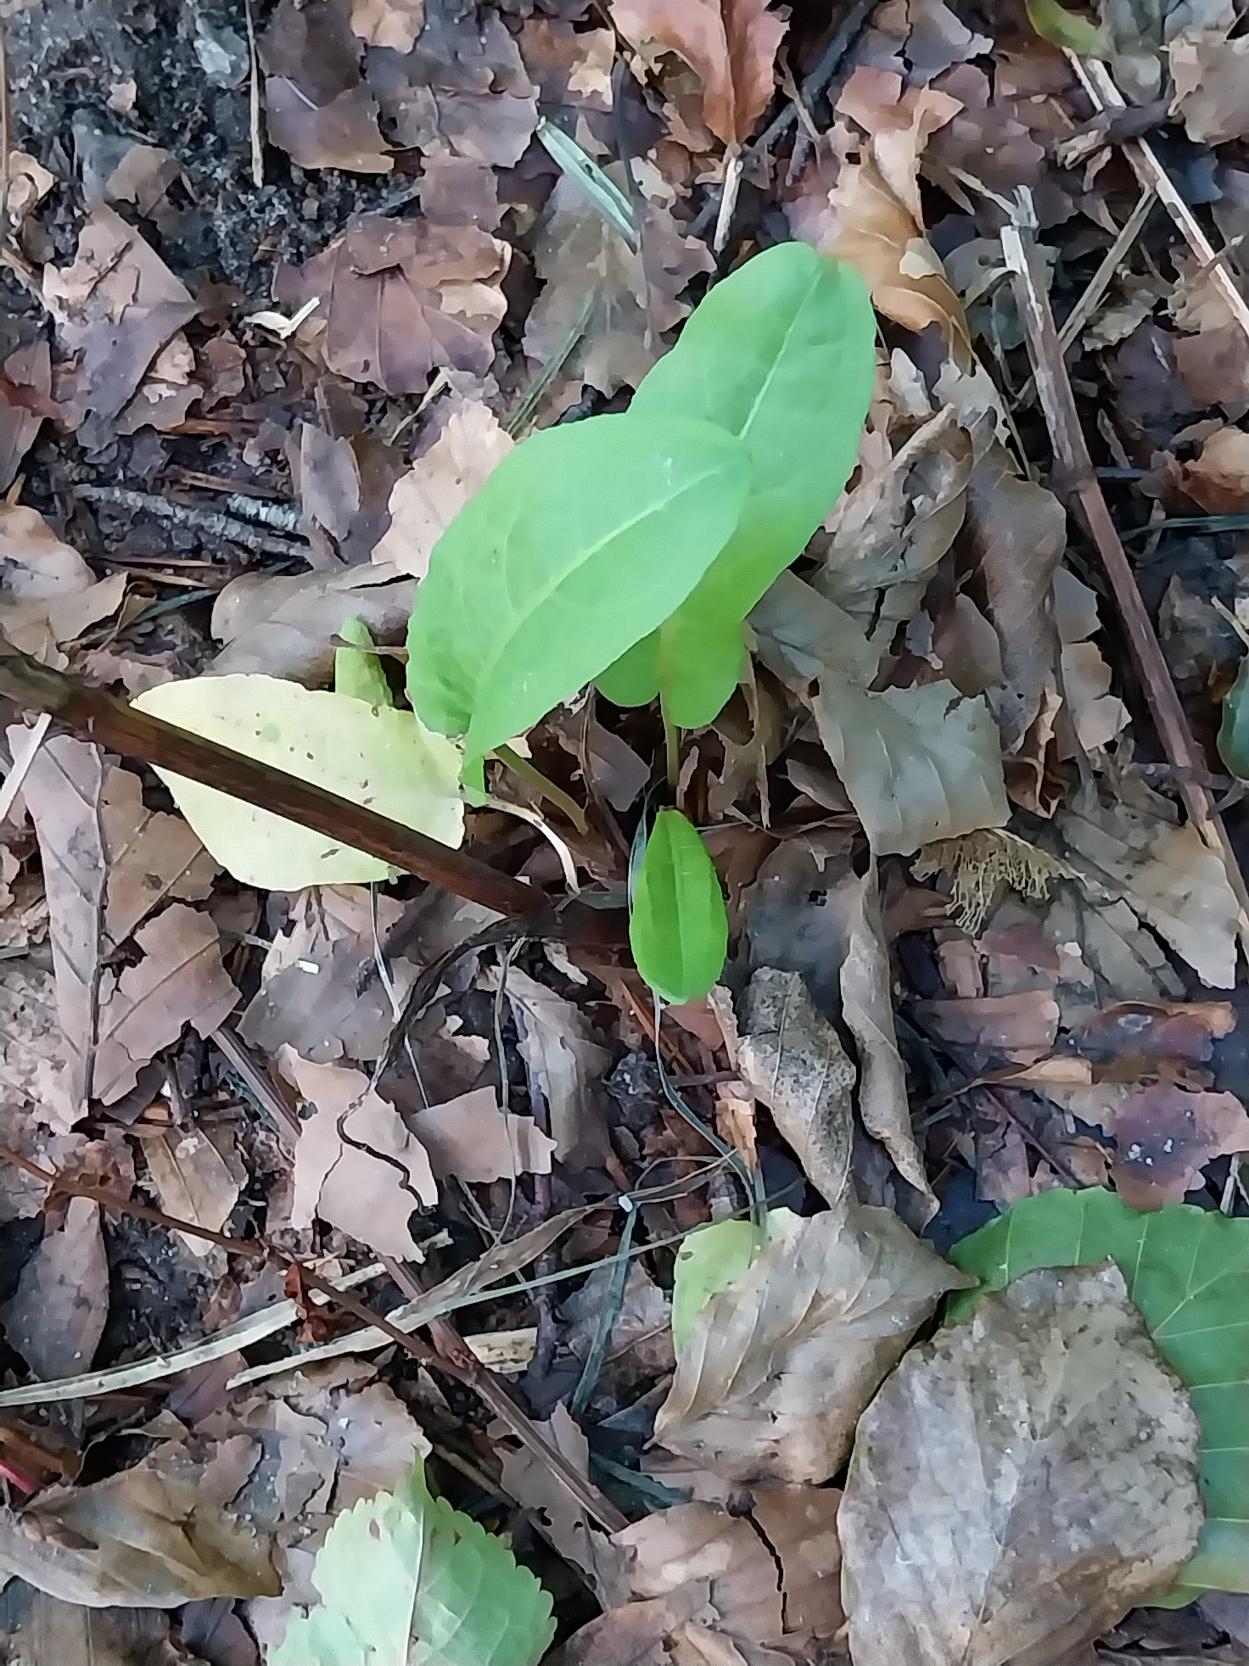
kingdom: Plantae
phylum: Tracheophyta
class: Magnoliopsida
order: Caryophyllales
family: Polygonaceae
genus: Rumex
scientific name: Rumex sanguineus
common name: Skov-skræppe
